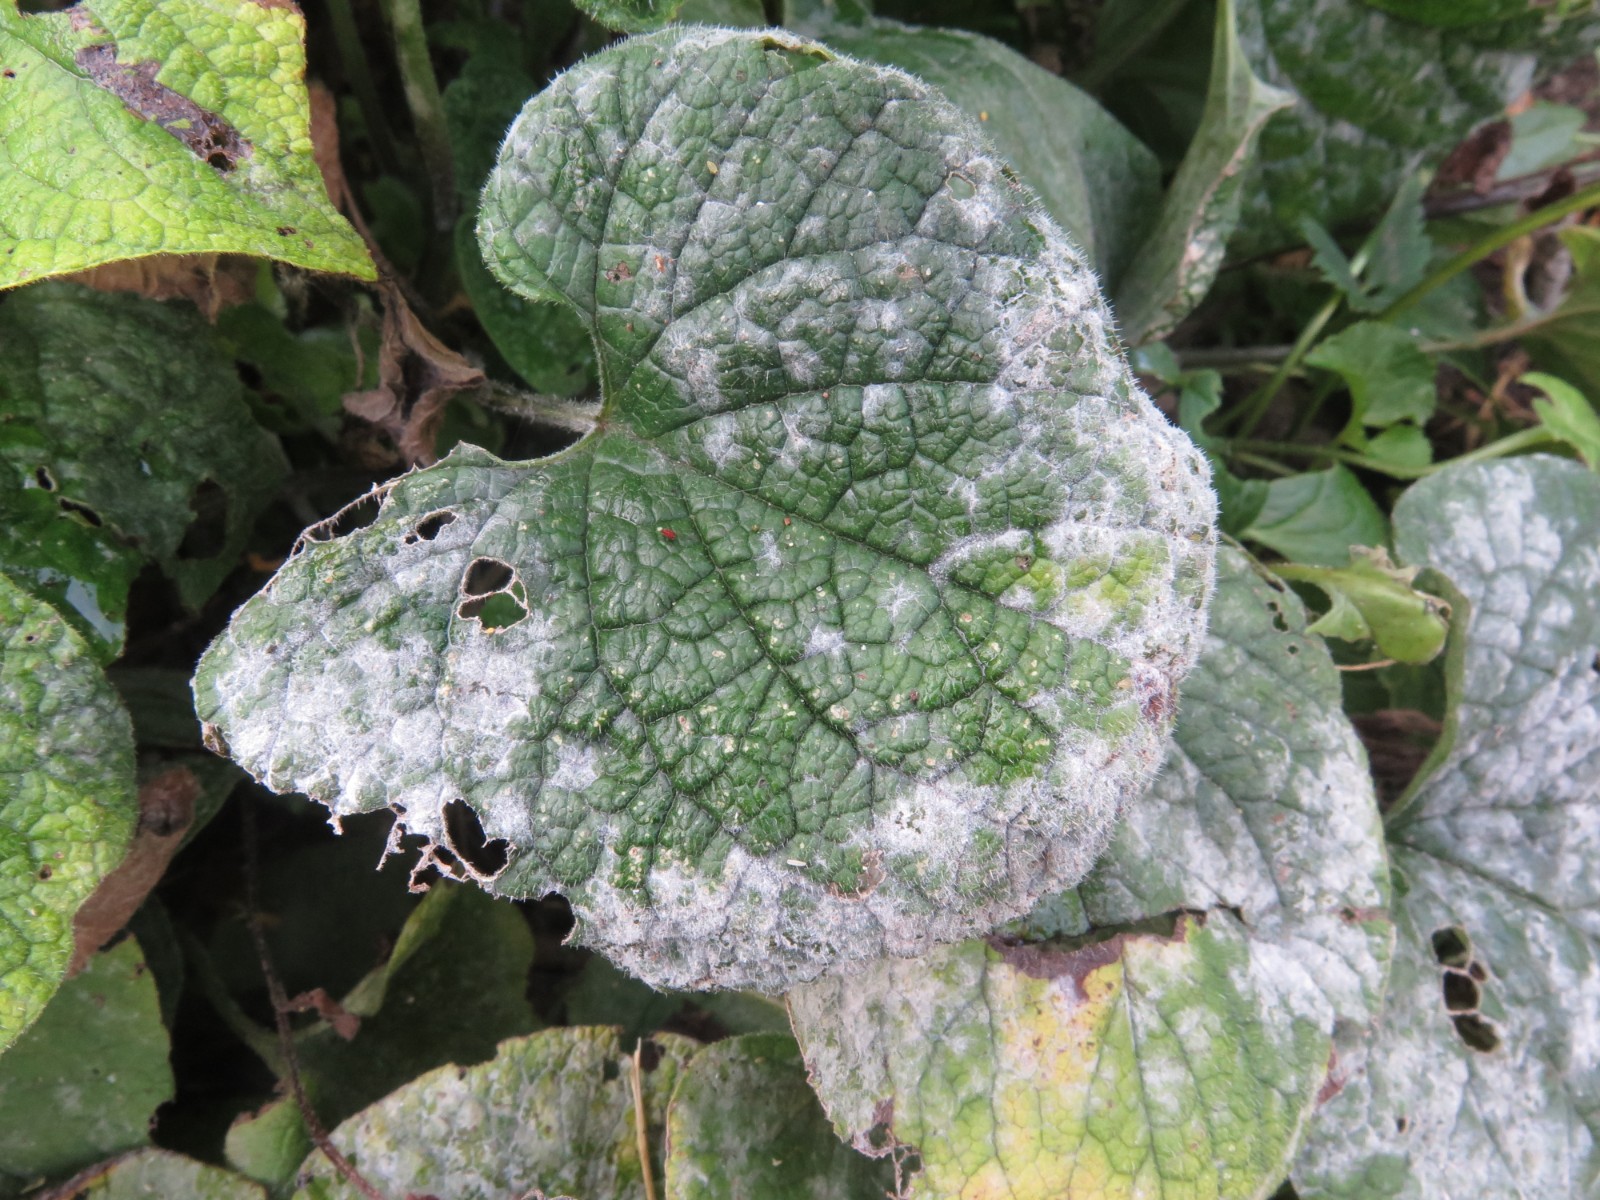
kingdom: Fungi
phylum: Ascomycota
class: Leotiomycetes
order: Helotiales
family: Erysiphaceae
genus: Golovinomyces
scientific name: Golovinomyces
